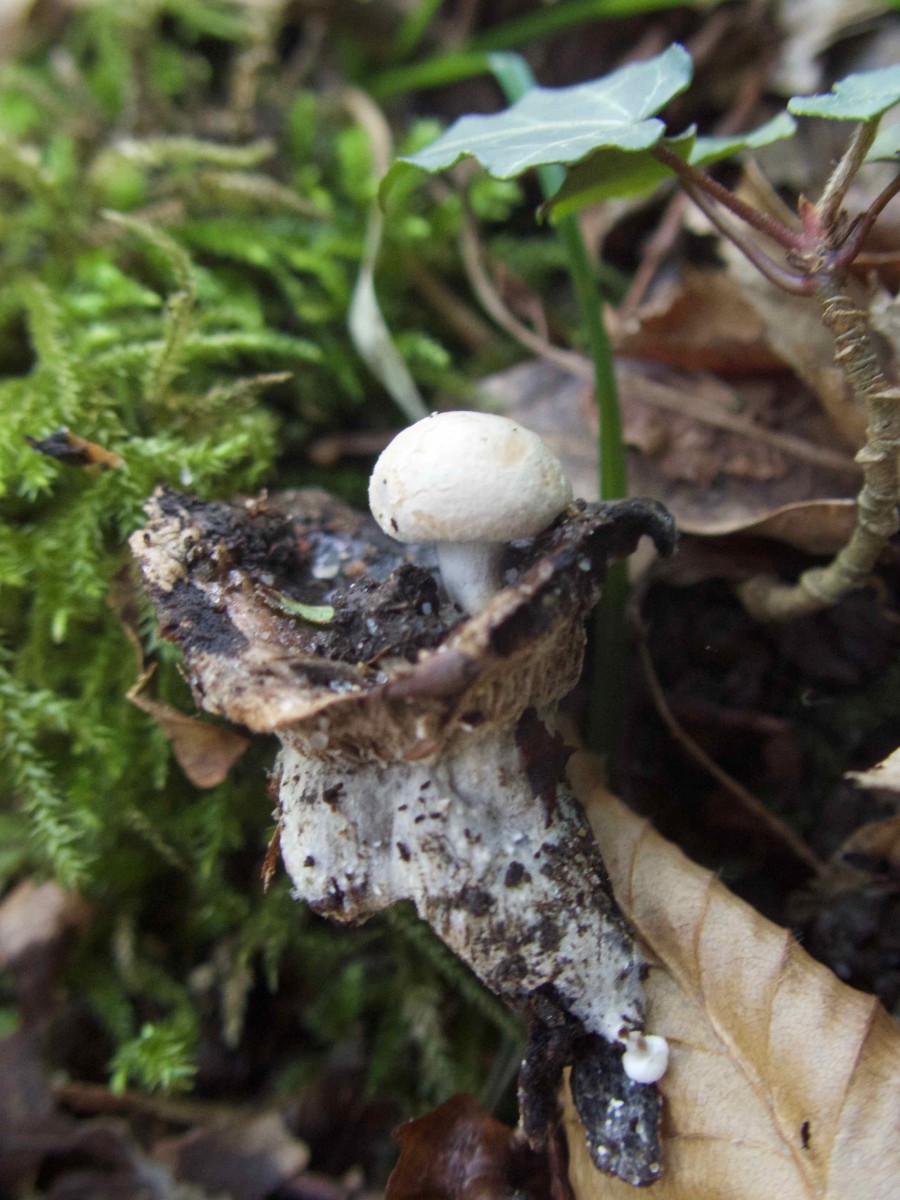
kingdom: Fungi
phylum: Basidiomycota
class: Agaricomycetes
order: Agaricales
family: Lyophyllaceae
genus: Asterophora
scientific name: Asterophora lycoperdoides
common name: brunpudret snyltehat
